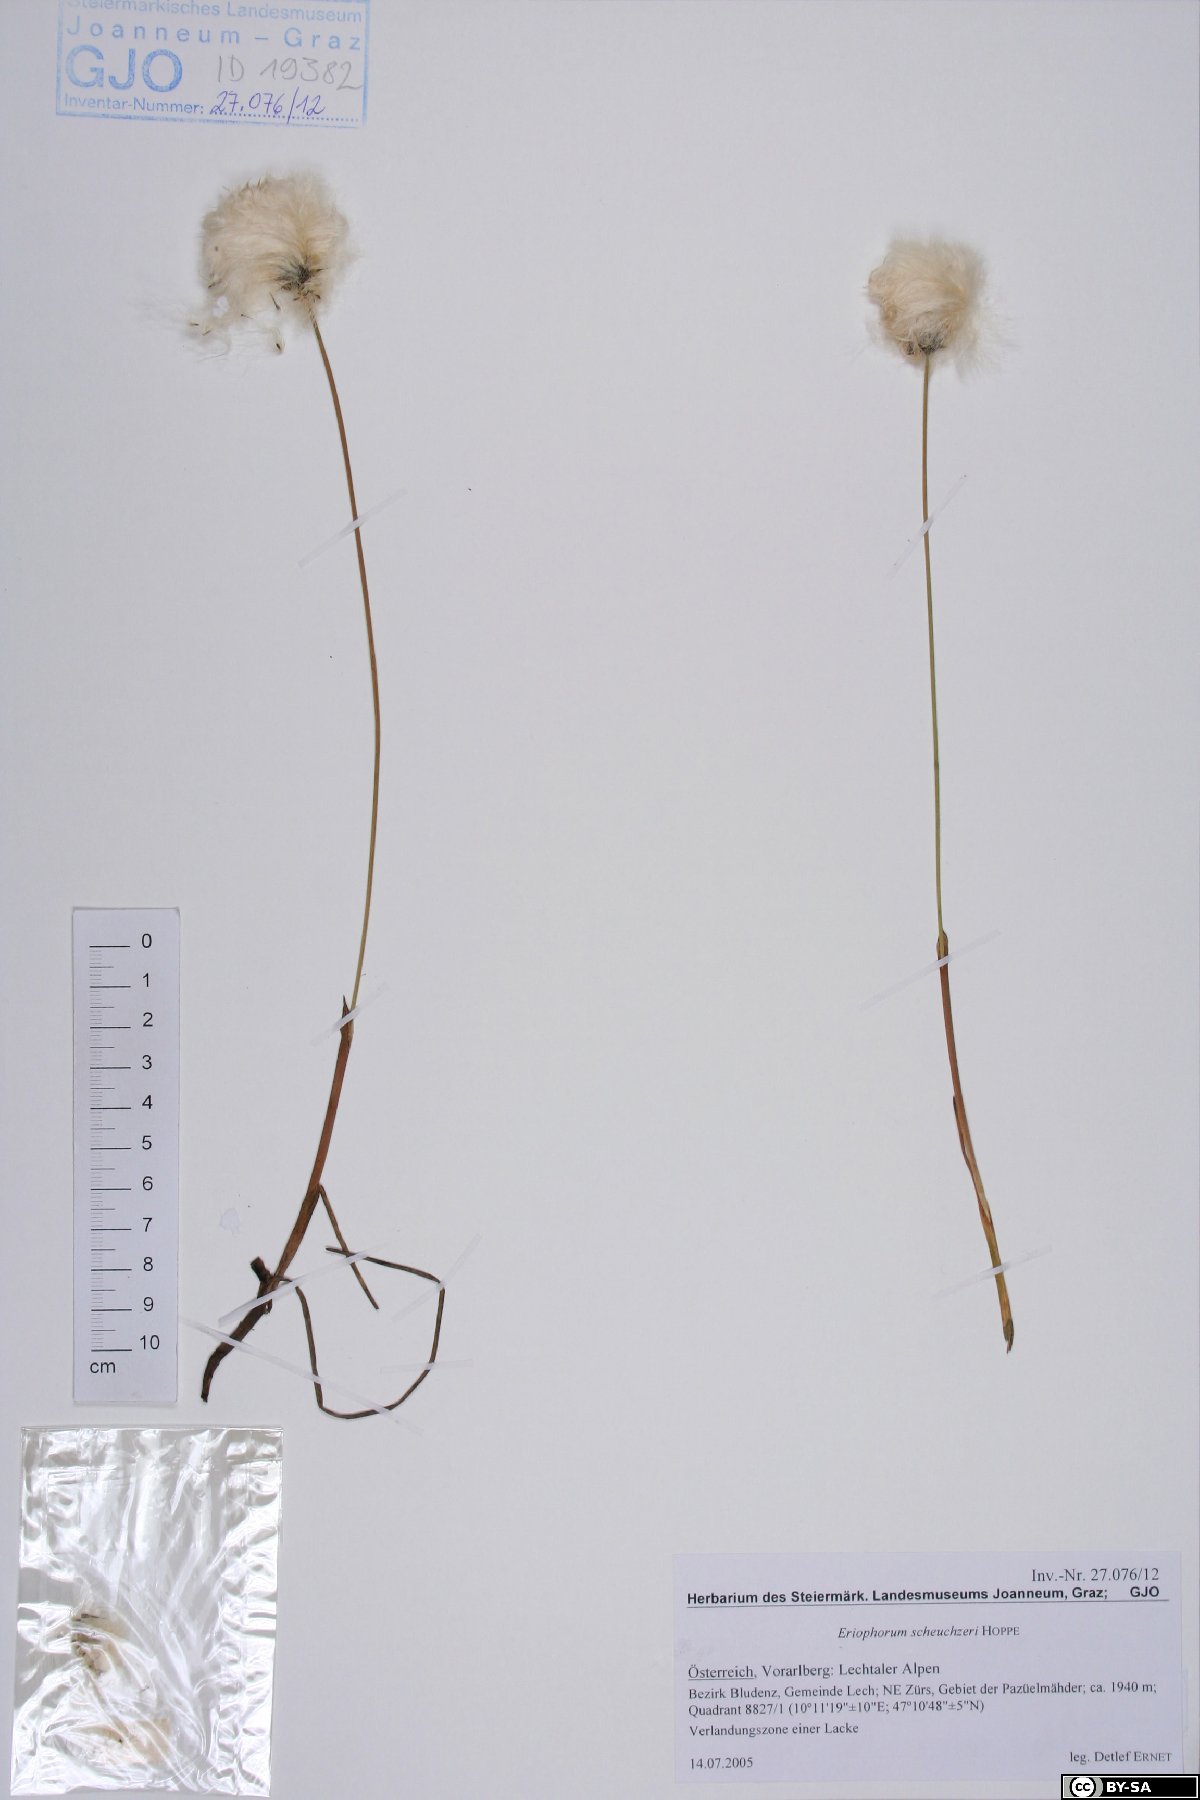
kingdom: Plantae
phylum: Tracheophyta
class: Liliopsida
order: Poales
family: Cyperaceae
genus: Eriophorum
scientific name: Eriophorum scheuchzeri
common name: Scheuchzer's cottongrass
